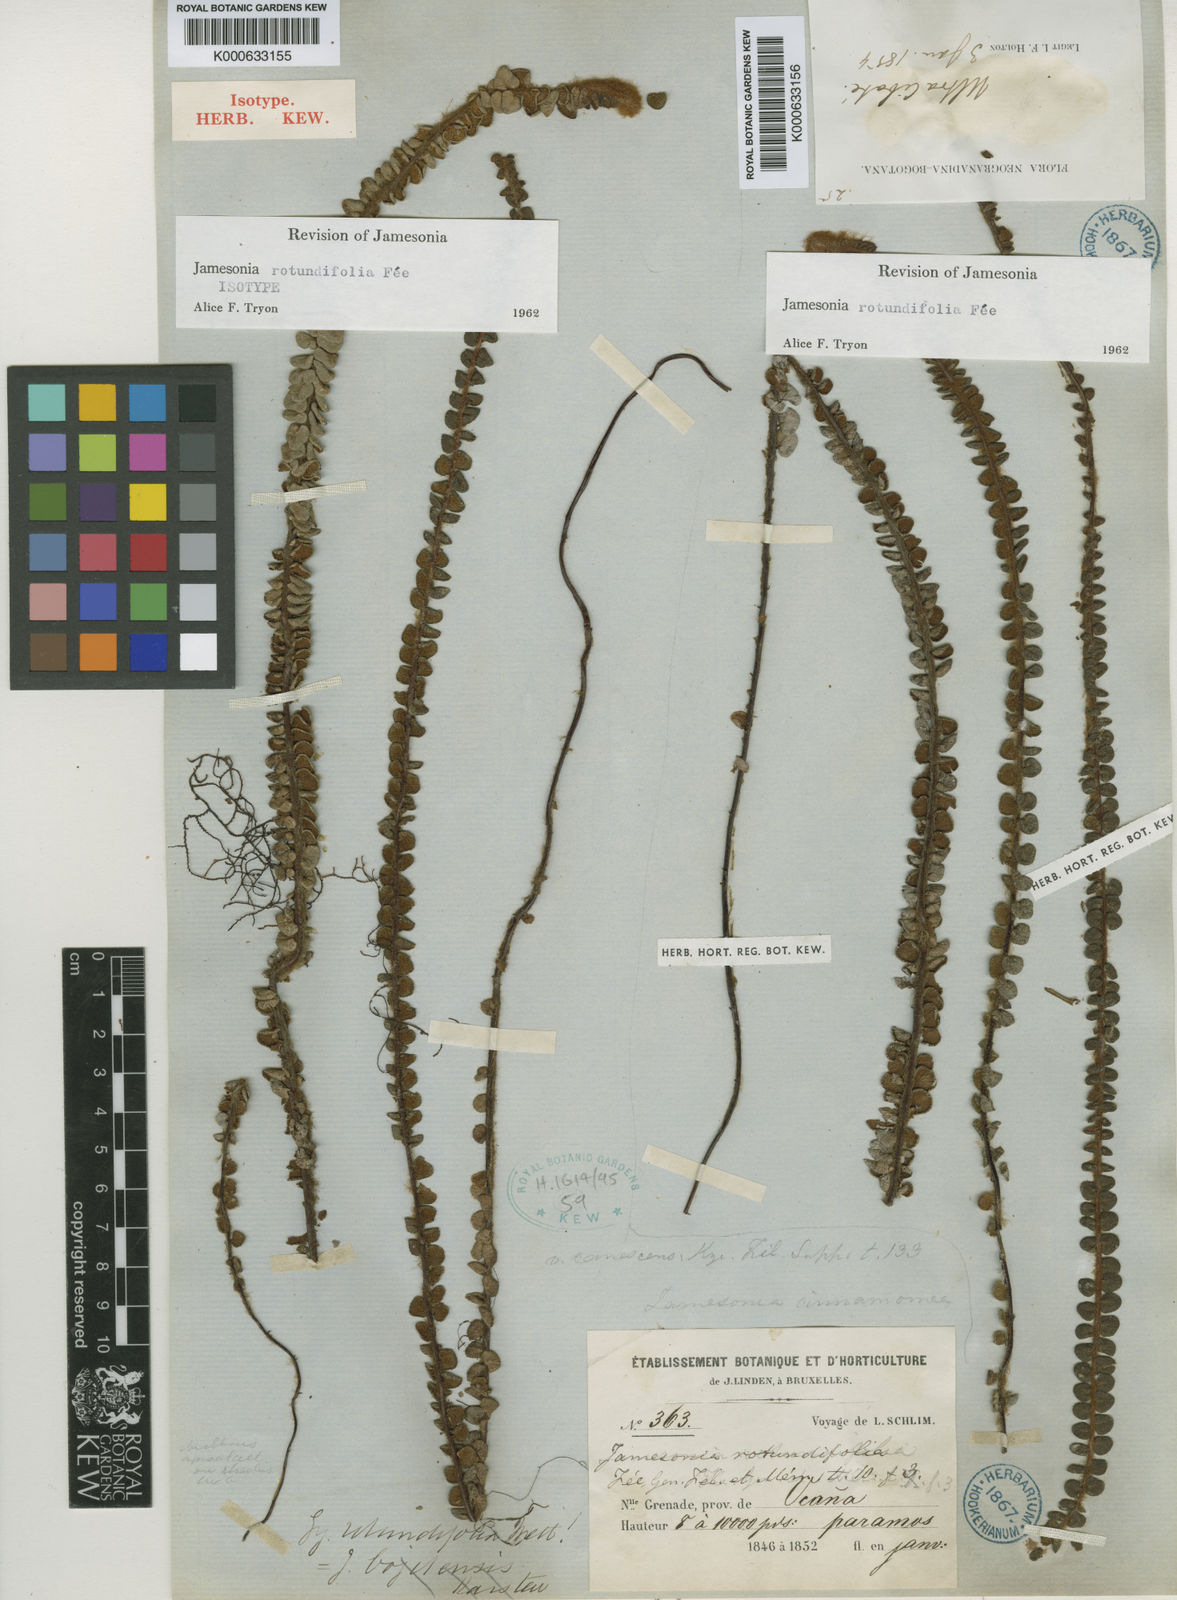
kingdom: Plantae
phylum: Tracheophyta
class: Polypodiopsida
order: Polypodiales
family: Pteridaceae
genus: Jamesonia
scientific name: Jamesonia
